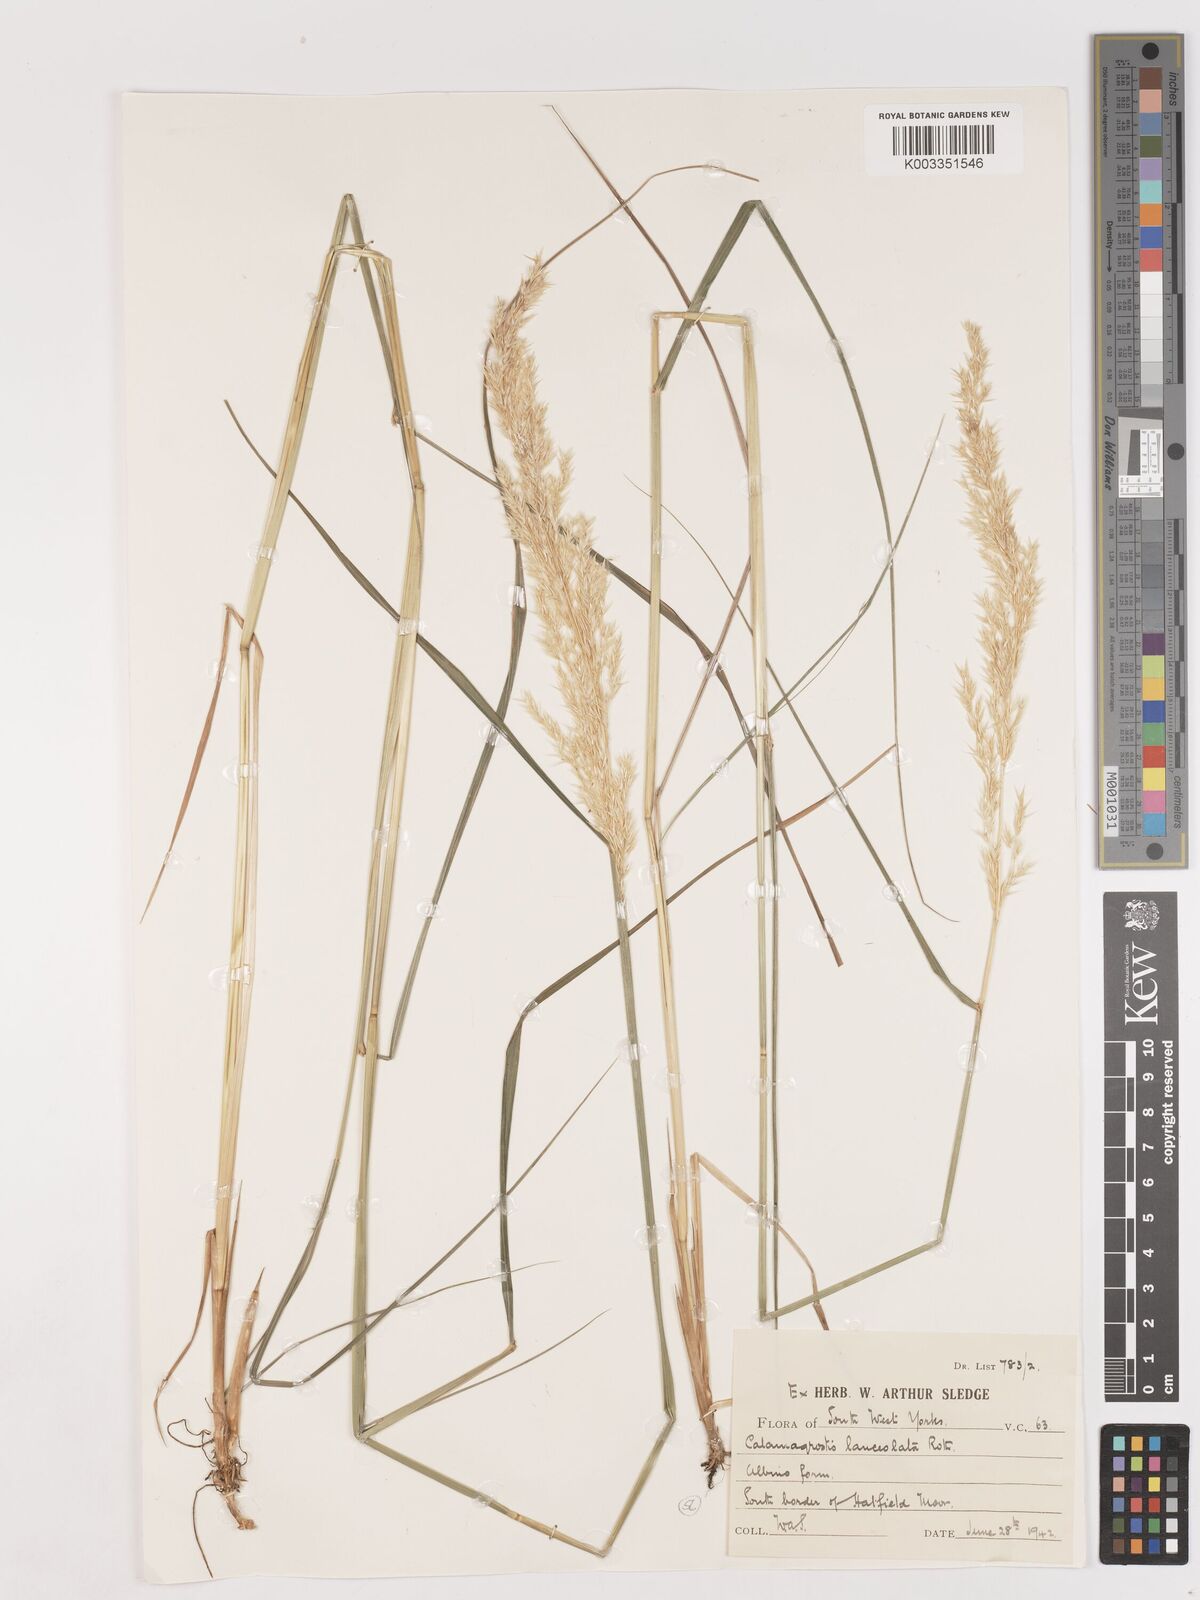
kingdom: Plantae
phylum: Tracheophyta
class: Liliopsida
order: Poales
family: Poaceae
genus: Calamagrostis
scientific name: Calamagrostis canescens
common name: Purple small-reed
